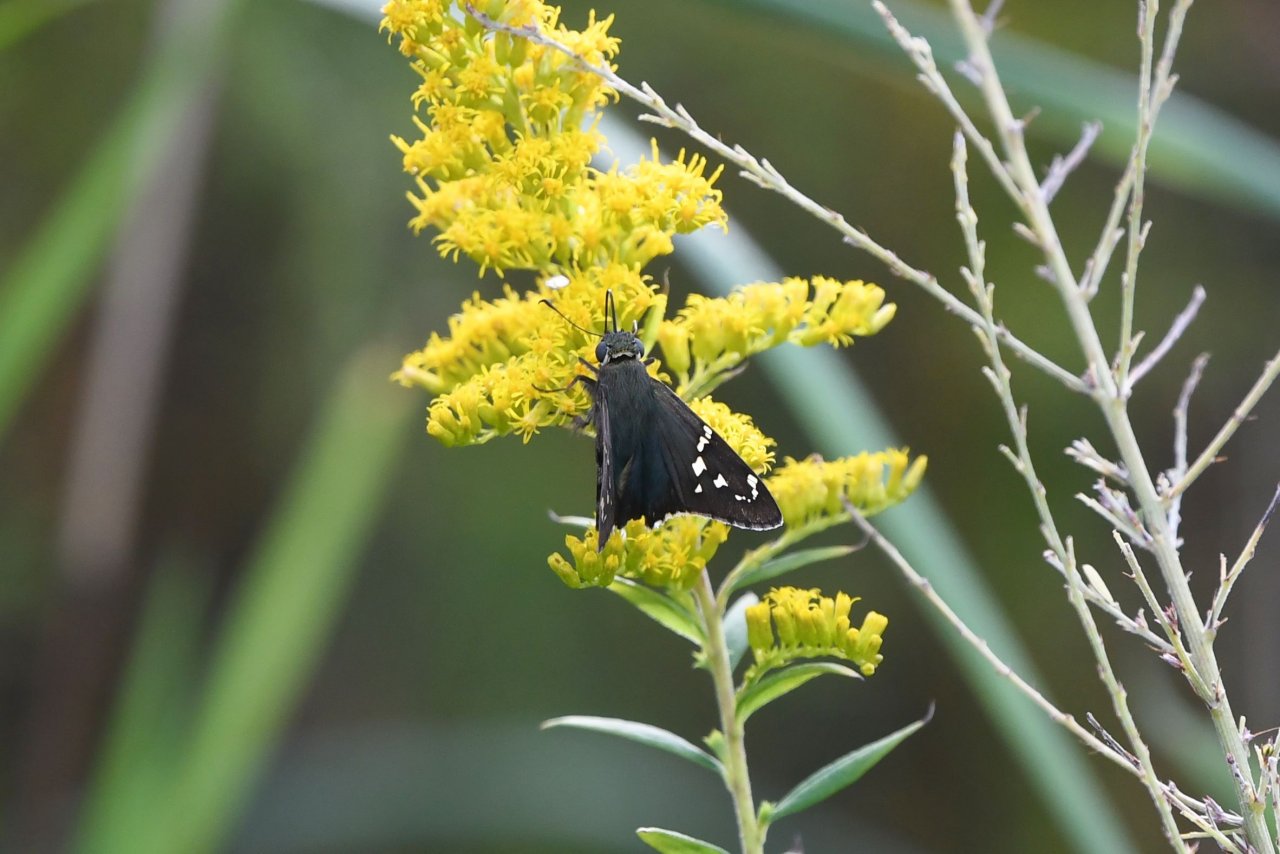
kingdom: Animalia
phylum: Arthropoda
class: Insecta
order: Lepidoptera
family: Hesperiidae
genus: Urbanus
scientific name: Urbanus proteus
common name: Long-tailed Skipper
